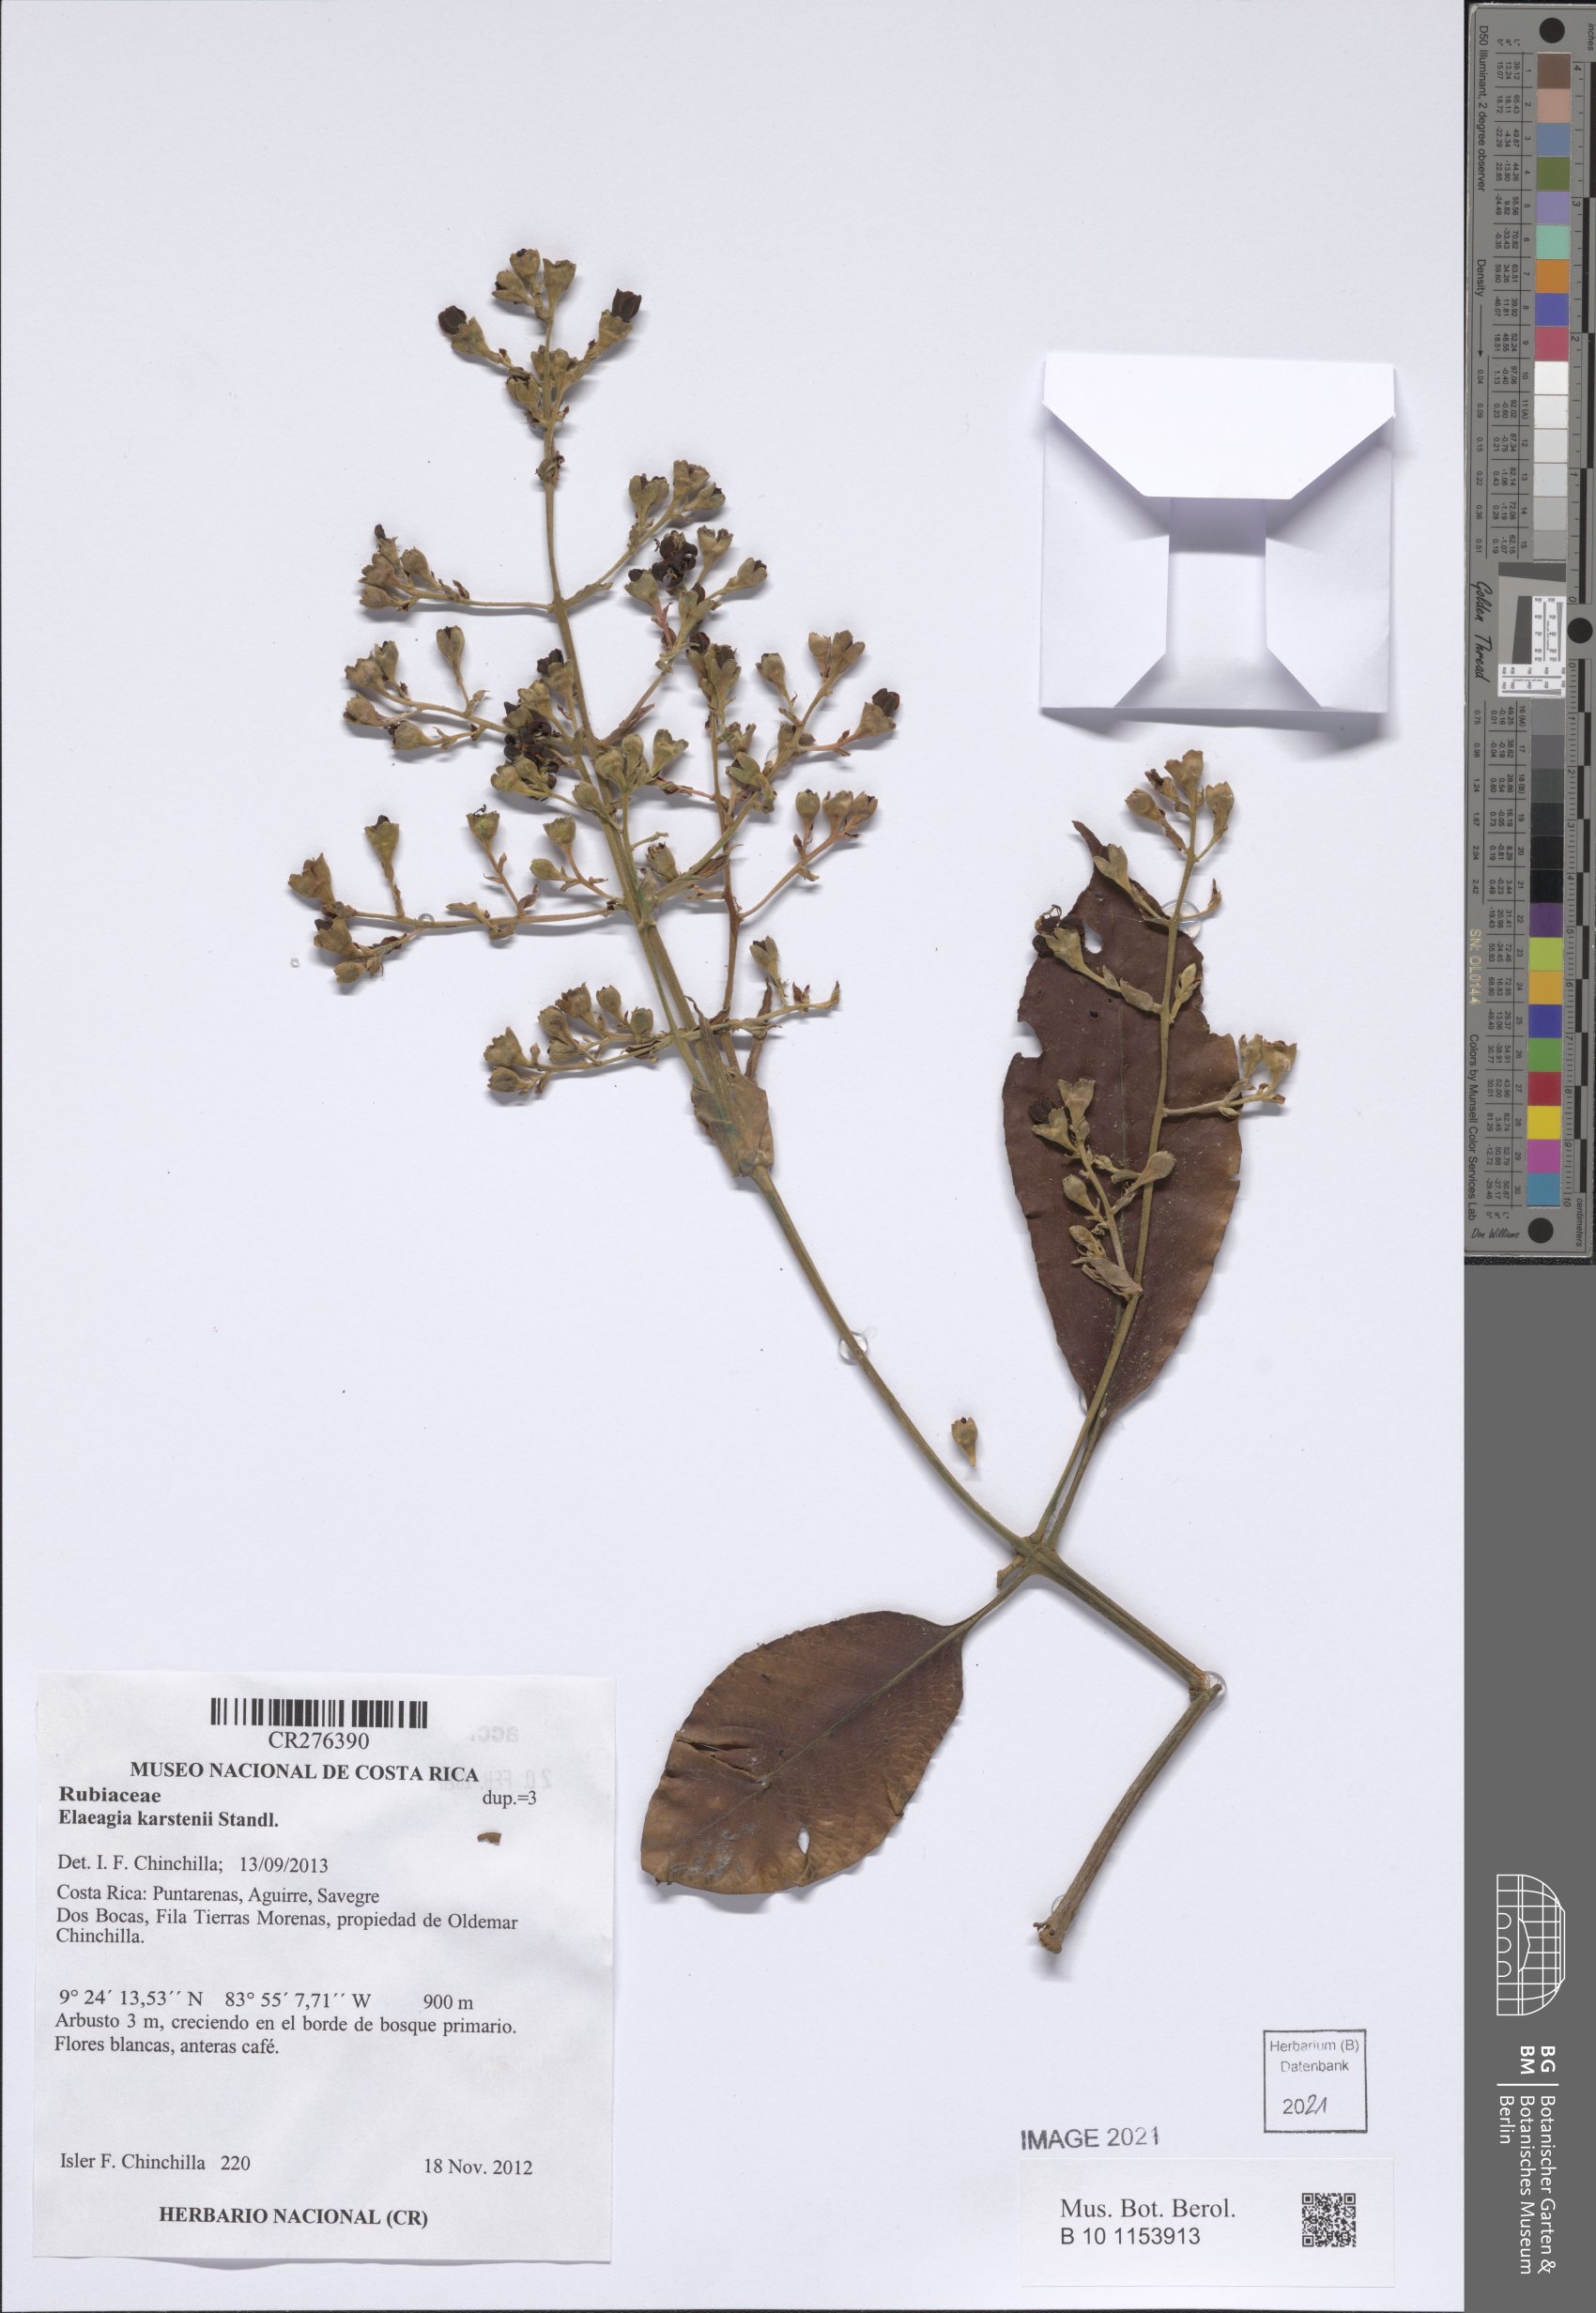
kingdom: Plantae
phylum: Tracheophyta
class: Magnoliopsida
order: Gentianales
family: Rubiaceae
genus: Elaeagia
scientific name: Elaeagia
